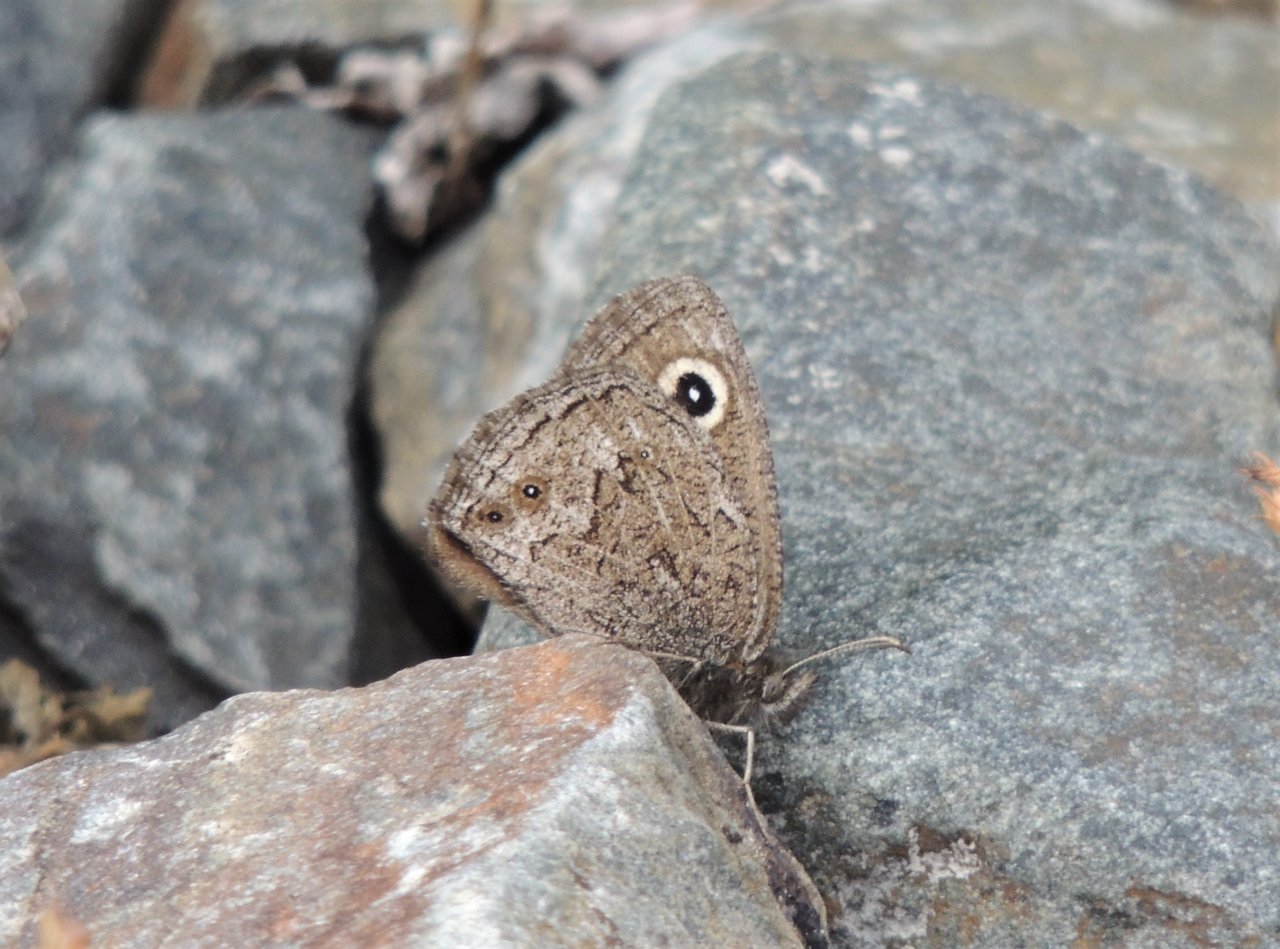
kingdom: Animalia
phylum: Arthropoda
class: Insecta
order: Lepidoptera
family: Nymphalidae
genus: Cercyonis
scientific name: Cercyonis oetus
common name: Small Wood-Nymph
